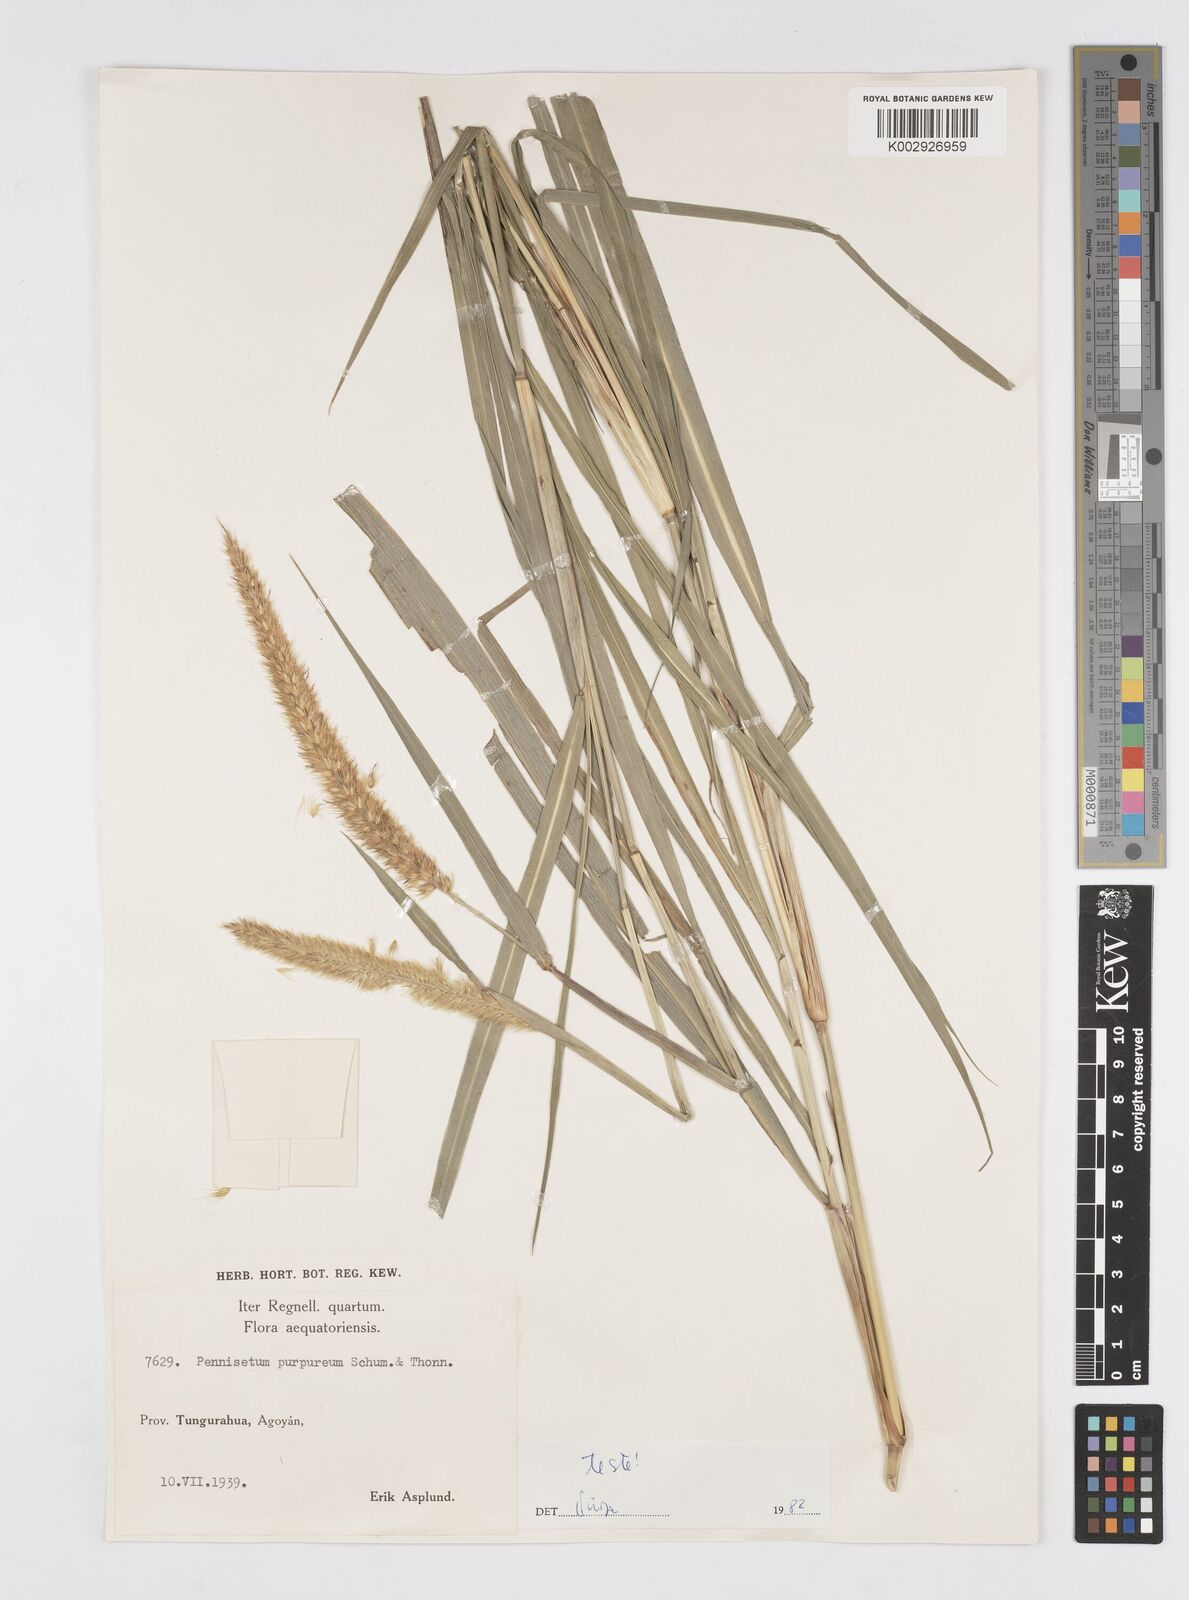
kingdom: Plantae
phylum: Tracheophyta
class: Liliopsida
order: Poales
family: Poaceae
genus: Cenchrus
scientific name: Cenchrus purpureus
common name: Elephant grass
